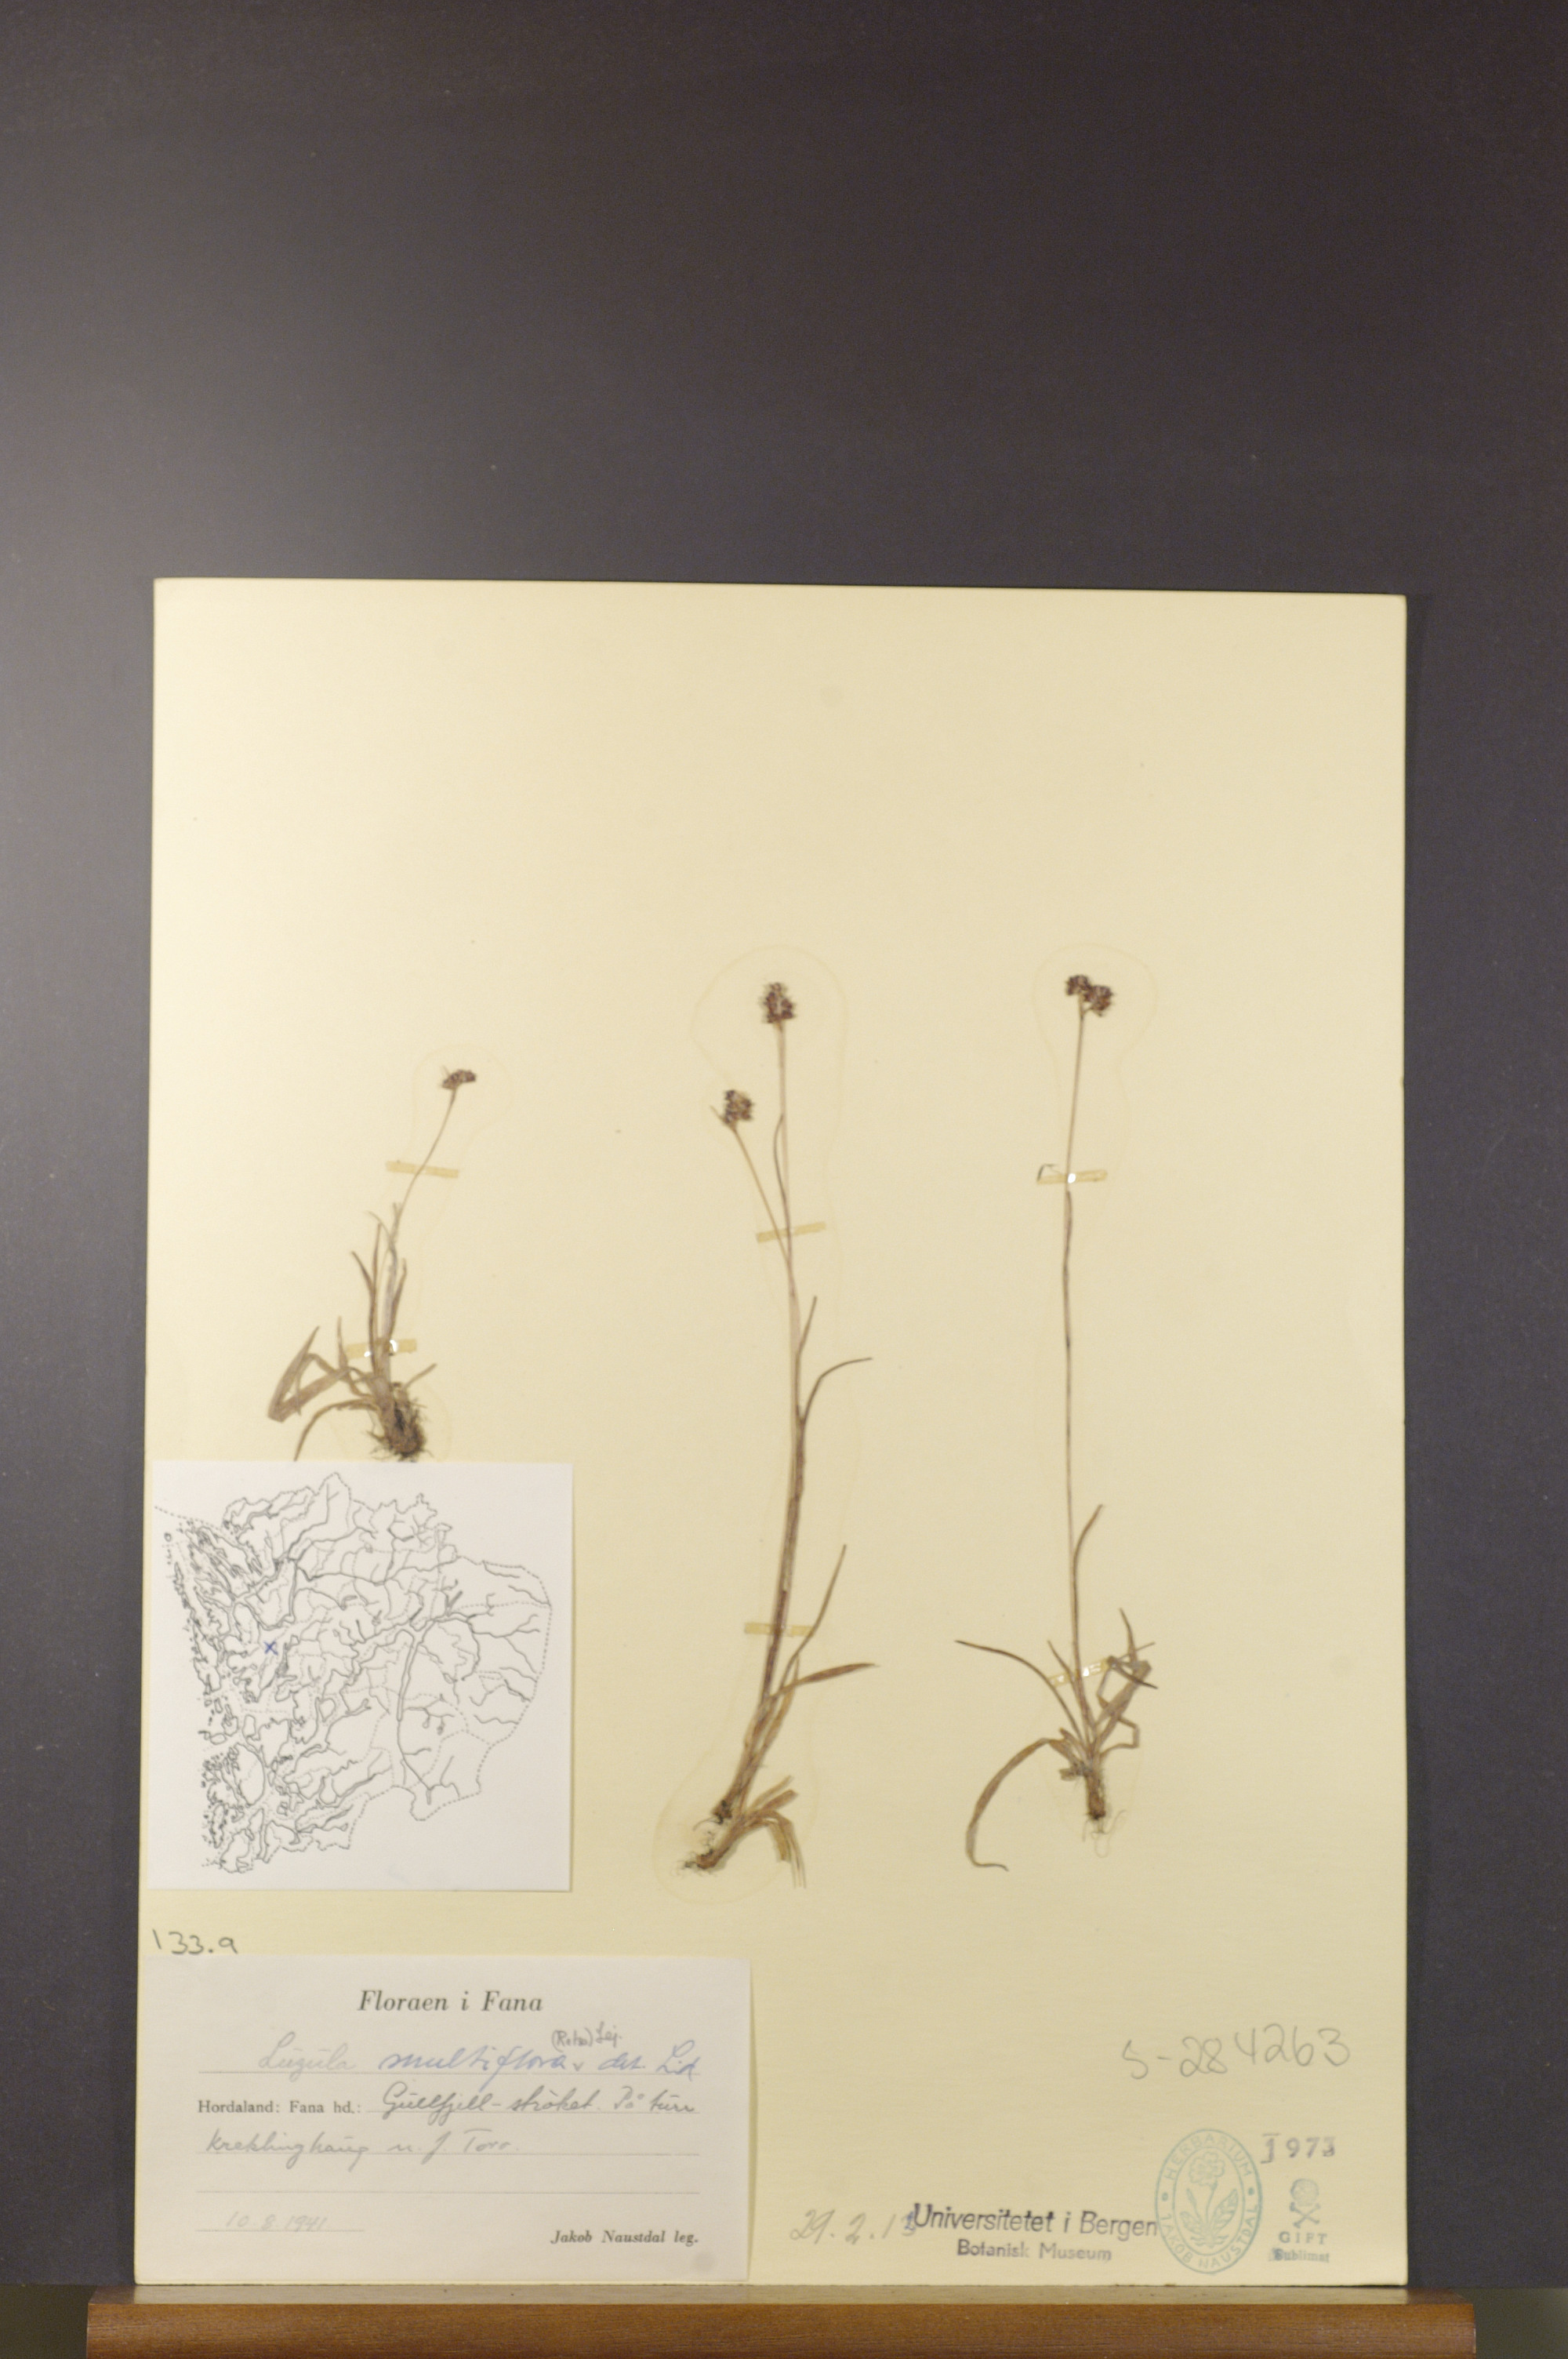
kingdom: Plantae
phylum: Tracheophyta
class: Liliopsida
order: Poales
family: Juncaceae
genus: Luzula
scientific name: Luzula multiflora
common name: Heath wood-rush
